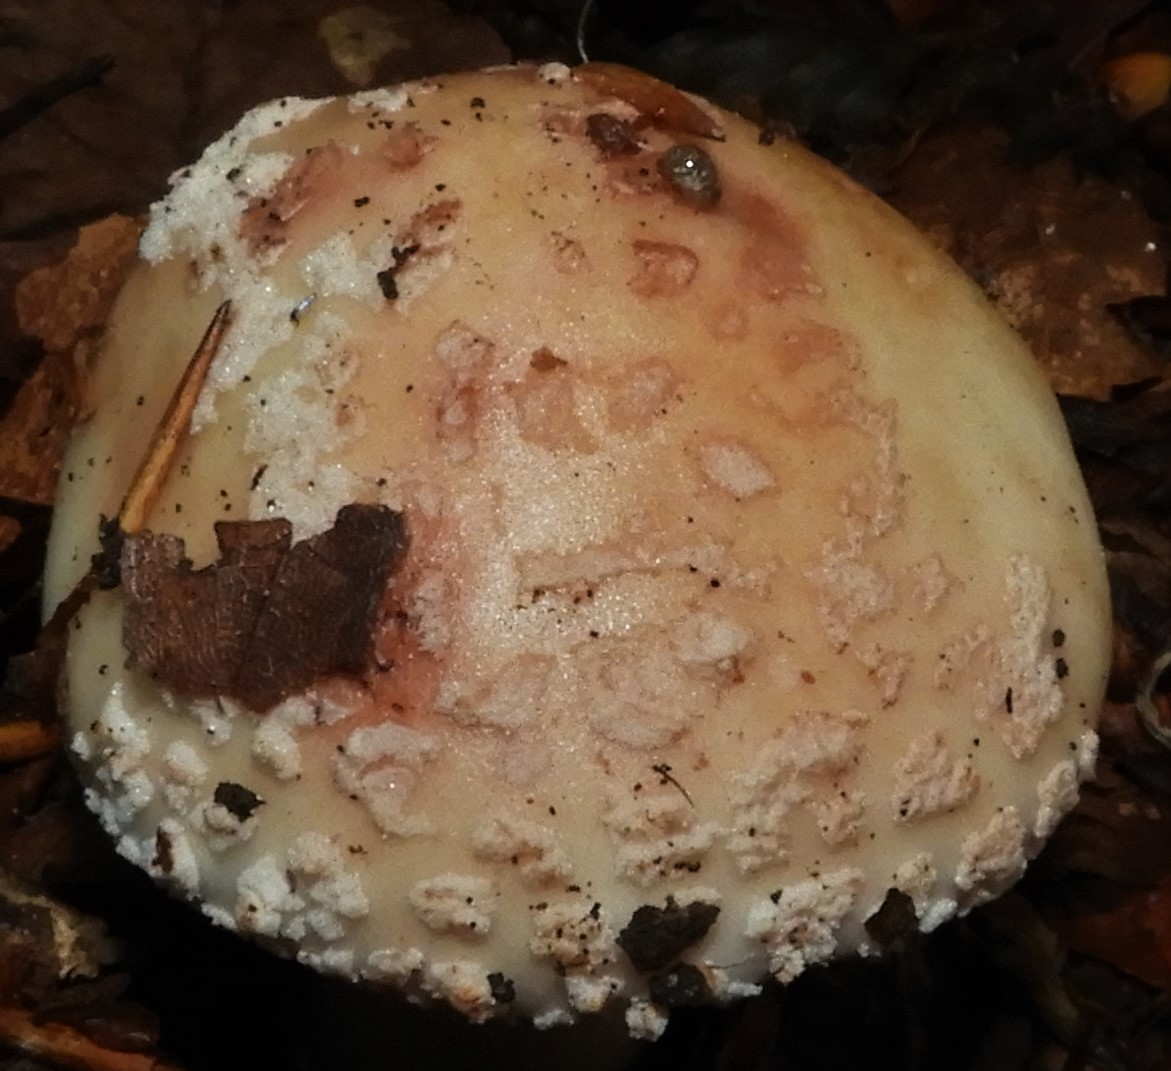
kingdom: Fungi
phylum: Basidiomycota
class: Agaricomycetes
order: Agaricales
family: Amanitaceae
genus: Amanita
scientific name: Amanita rubescens
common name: rødmende fluesvamp
